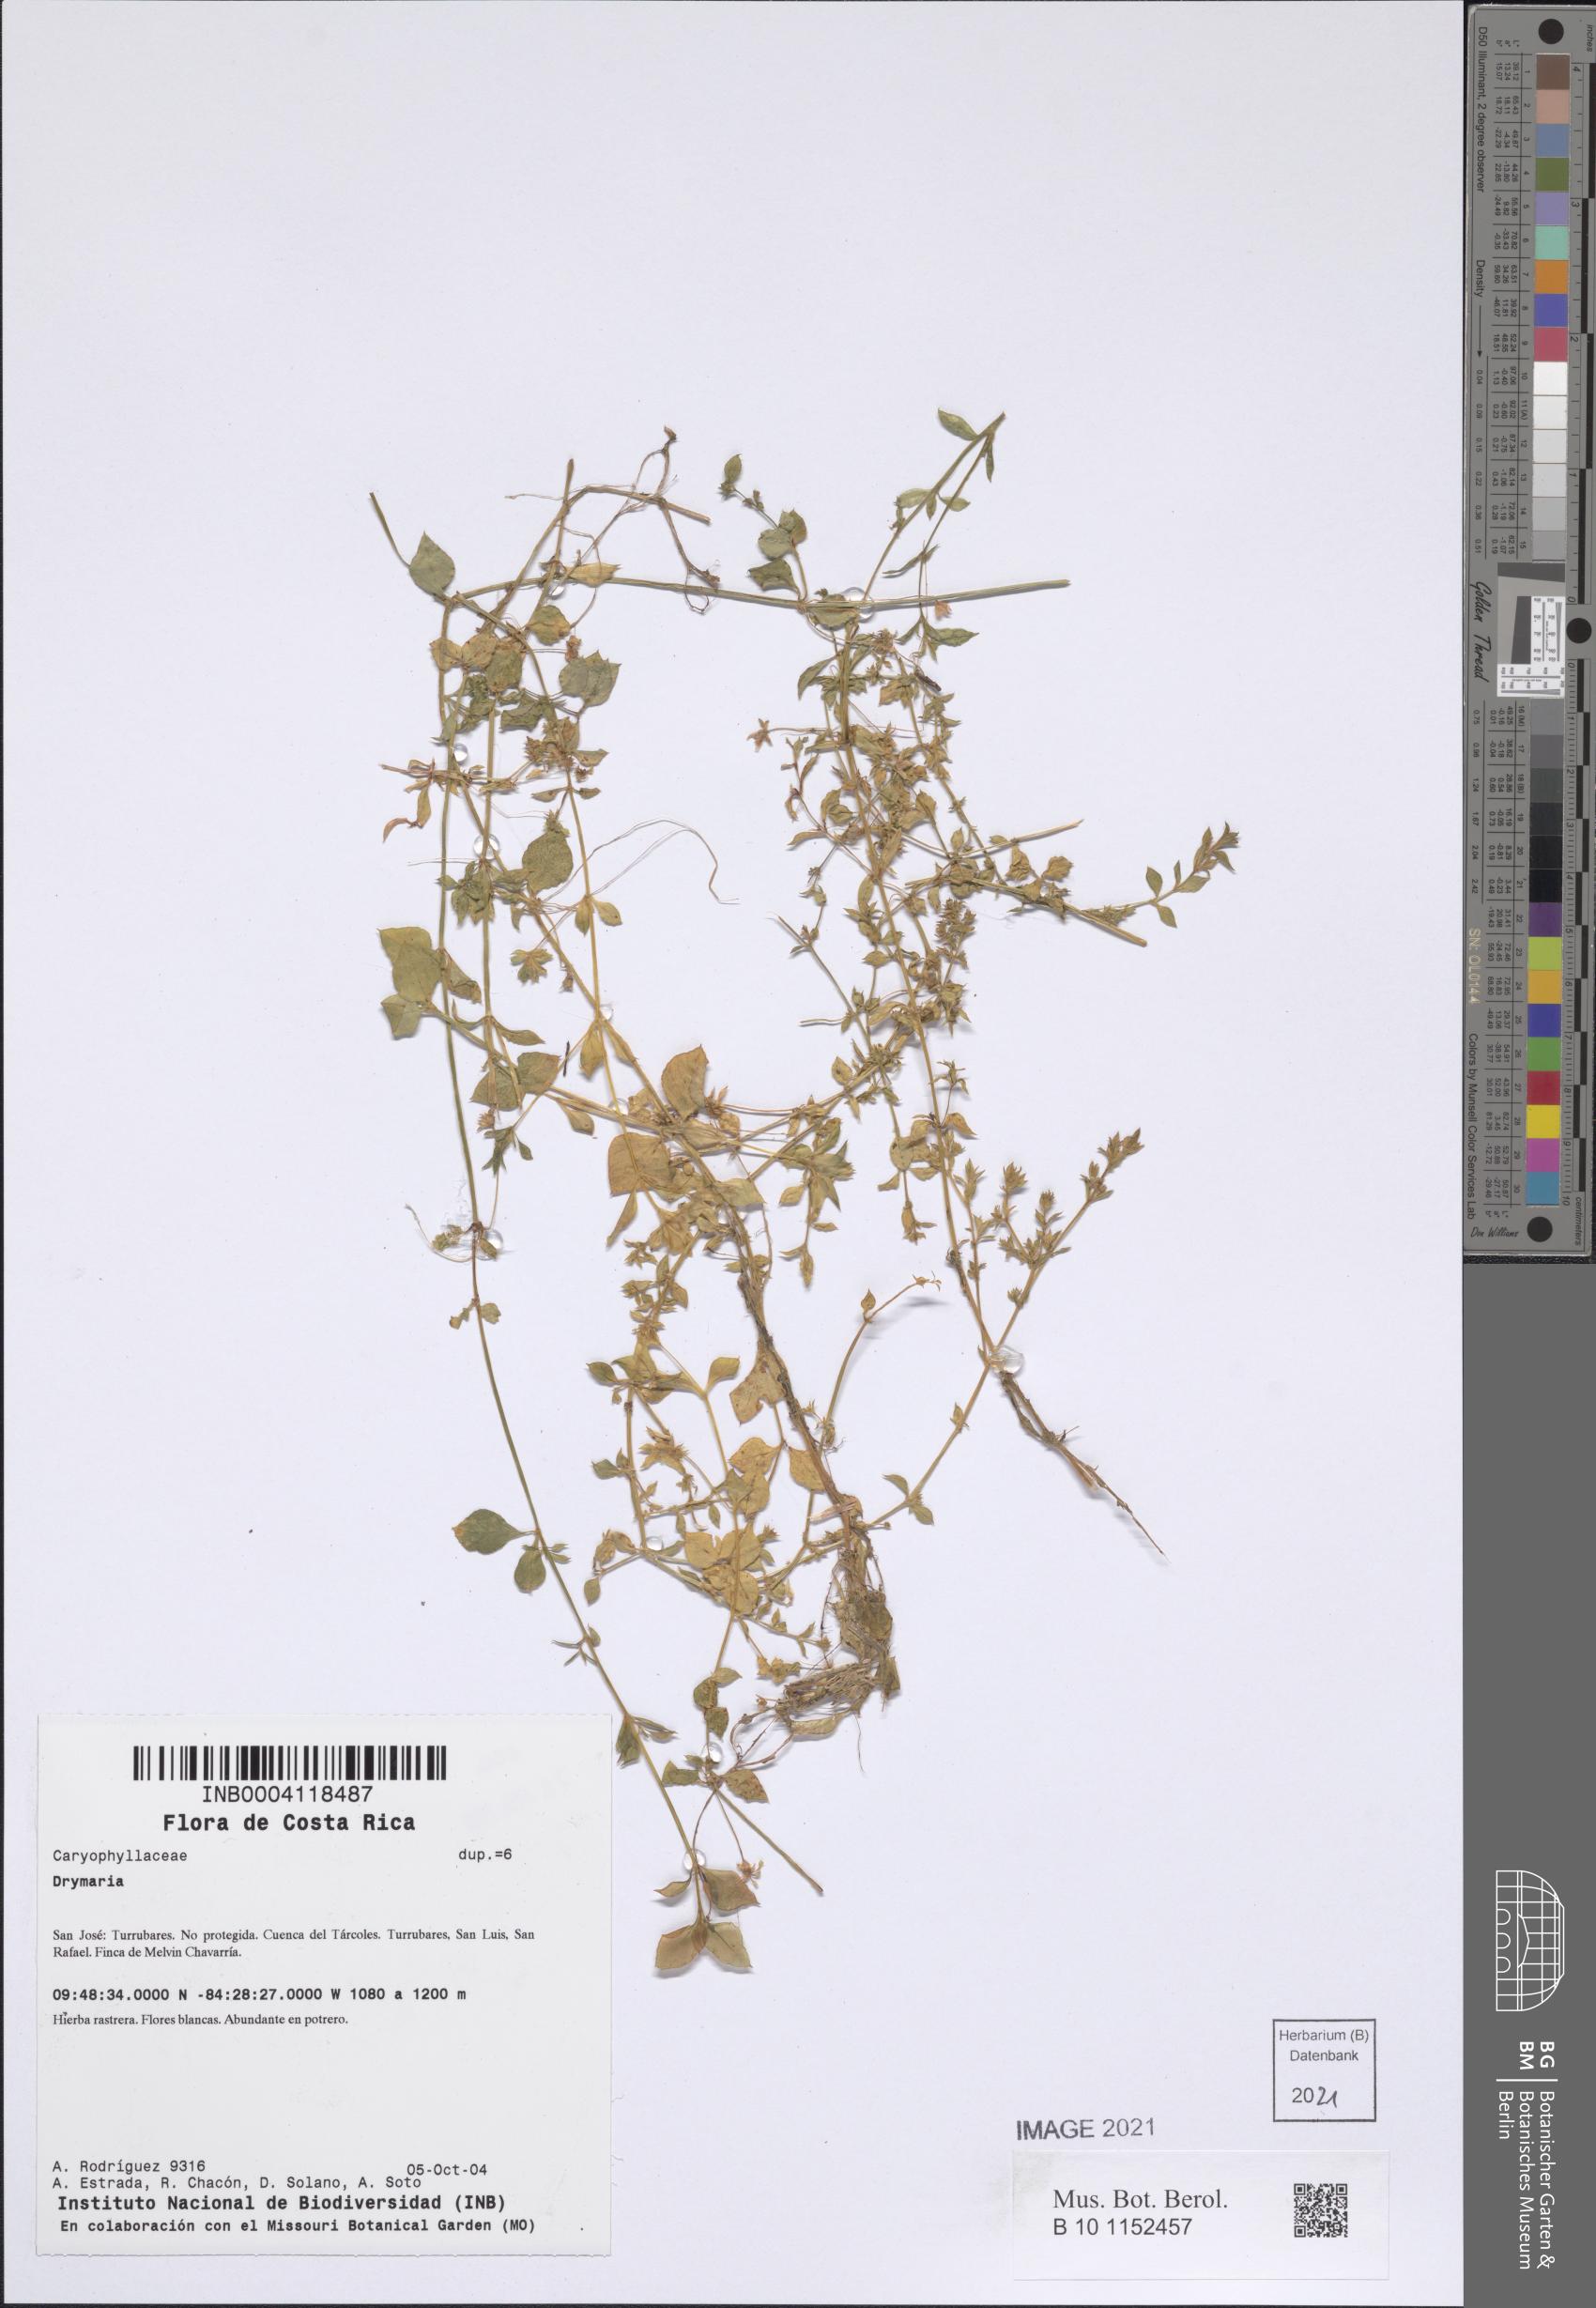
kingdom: Plantae
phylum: Tracheophyta
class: Magnoliopsida
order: Caryophyllales
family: Caryophyllaceae
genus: Stellaria
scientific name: Stellaria ovata
